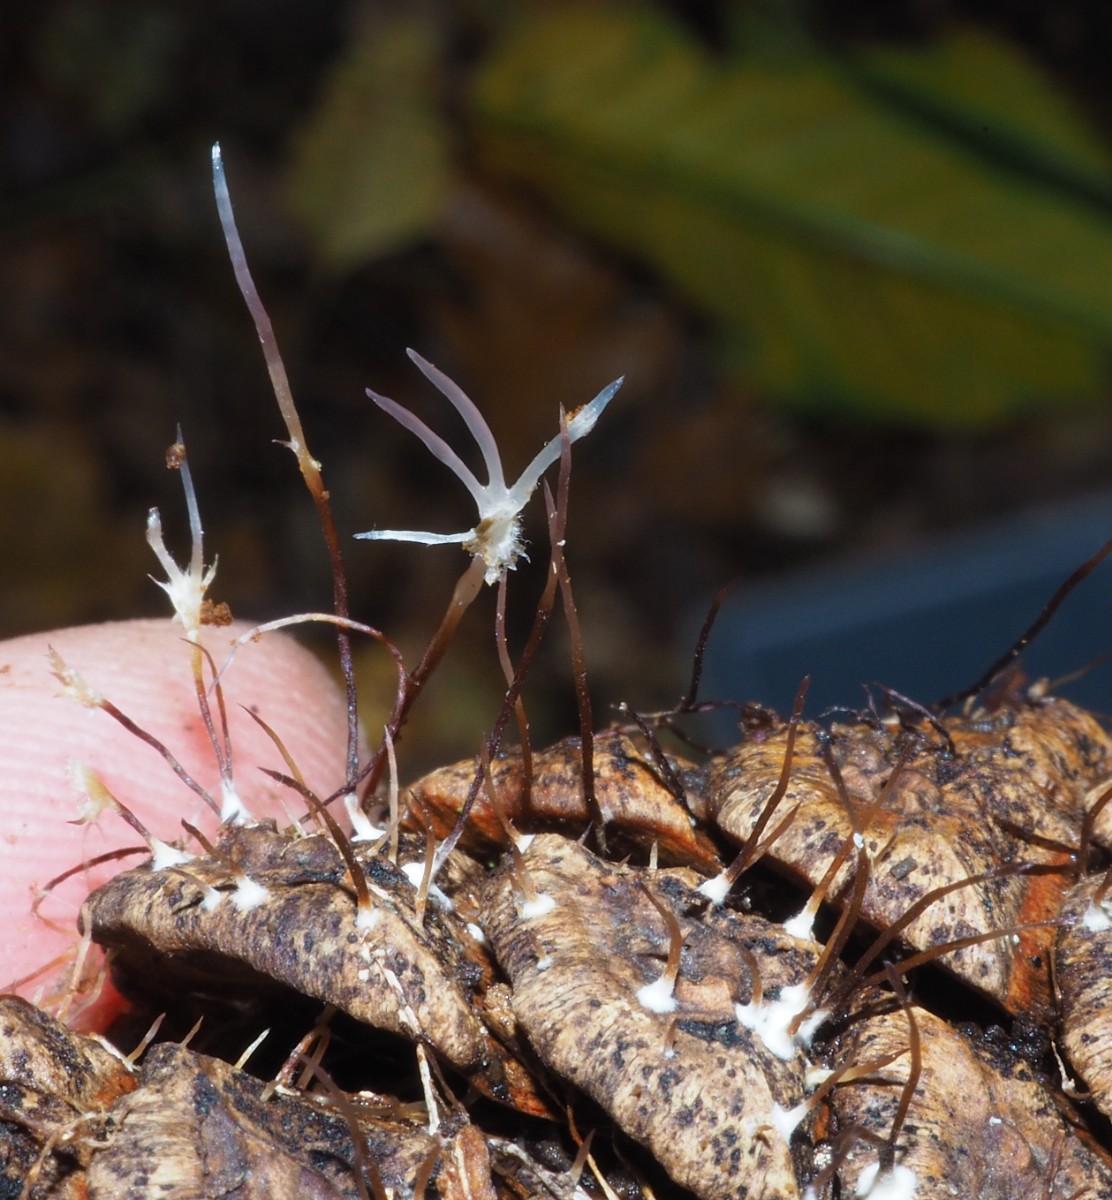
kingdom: Fungi
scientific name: Fungi
